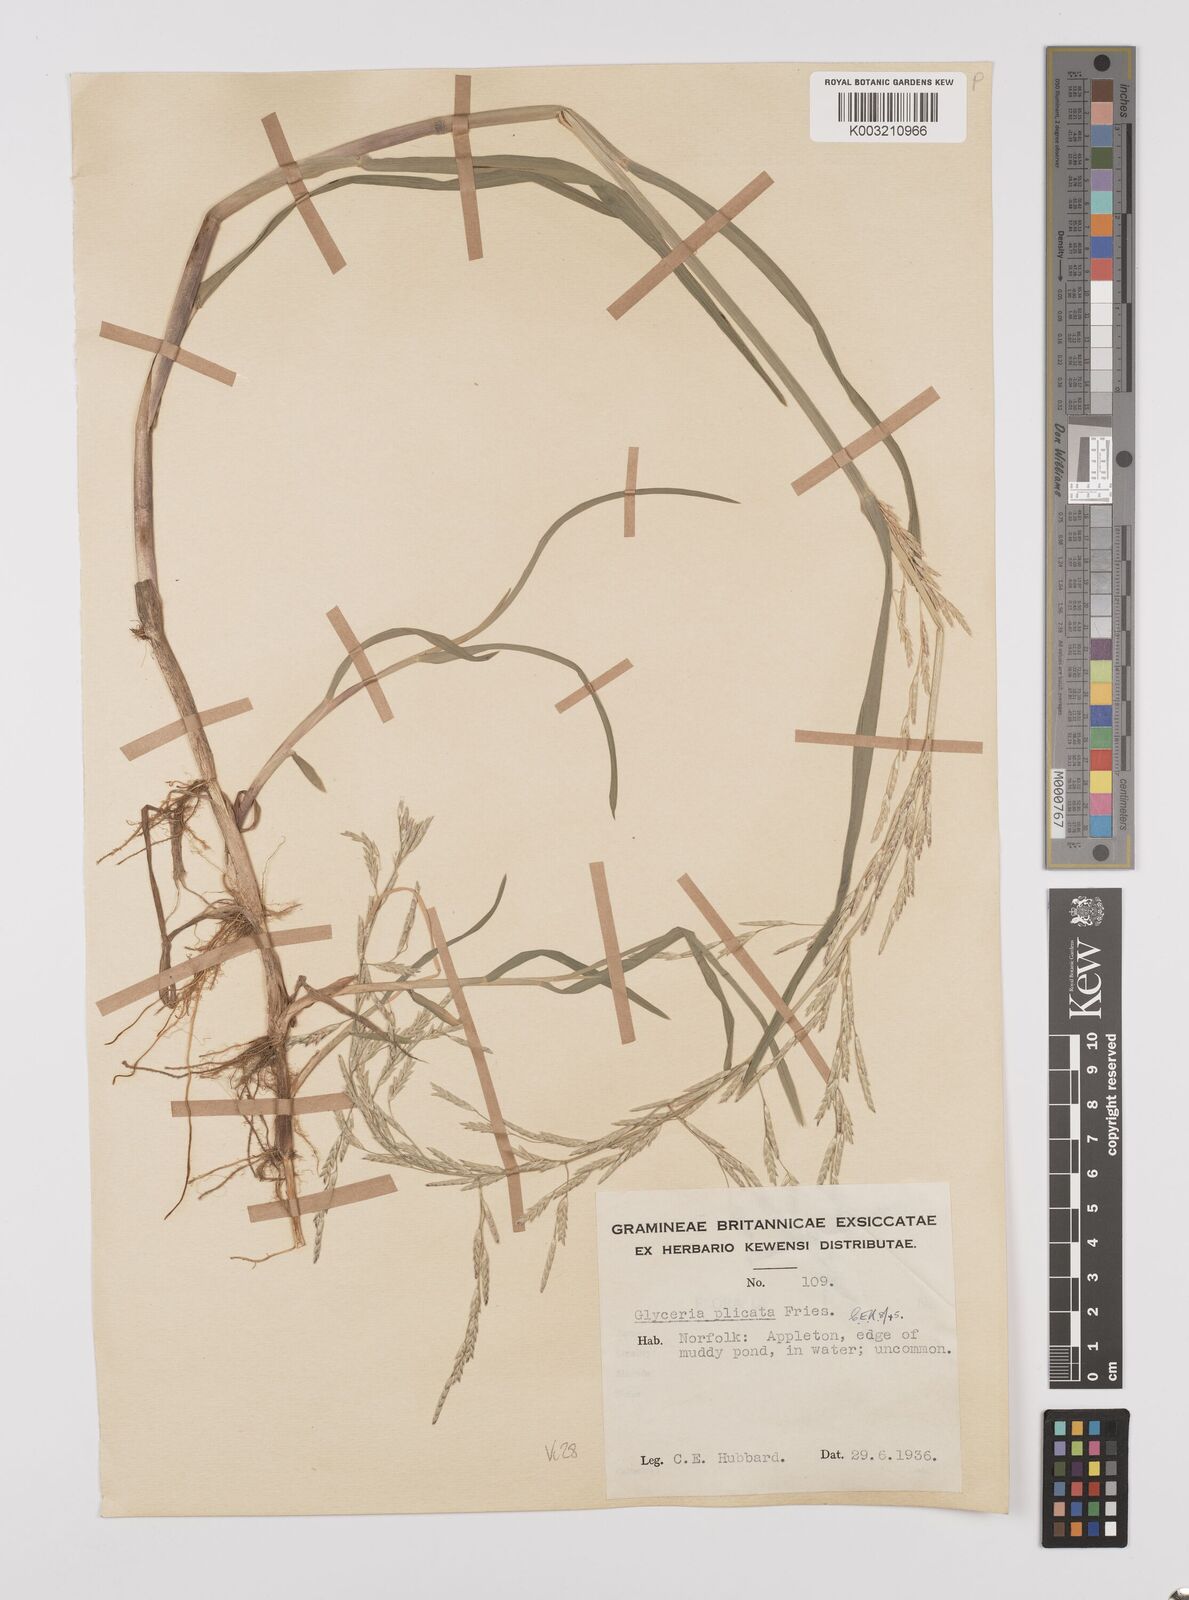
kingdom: Plantae
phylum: Tracheophyta
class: Liliopsida
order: Poales
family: Poaceae
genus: Glyceria
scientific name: Glyceria notata
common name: Plicate sweet-grass
